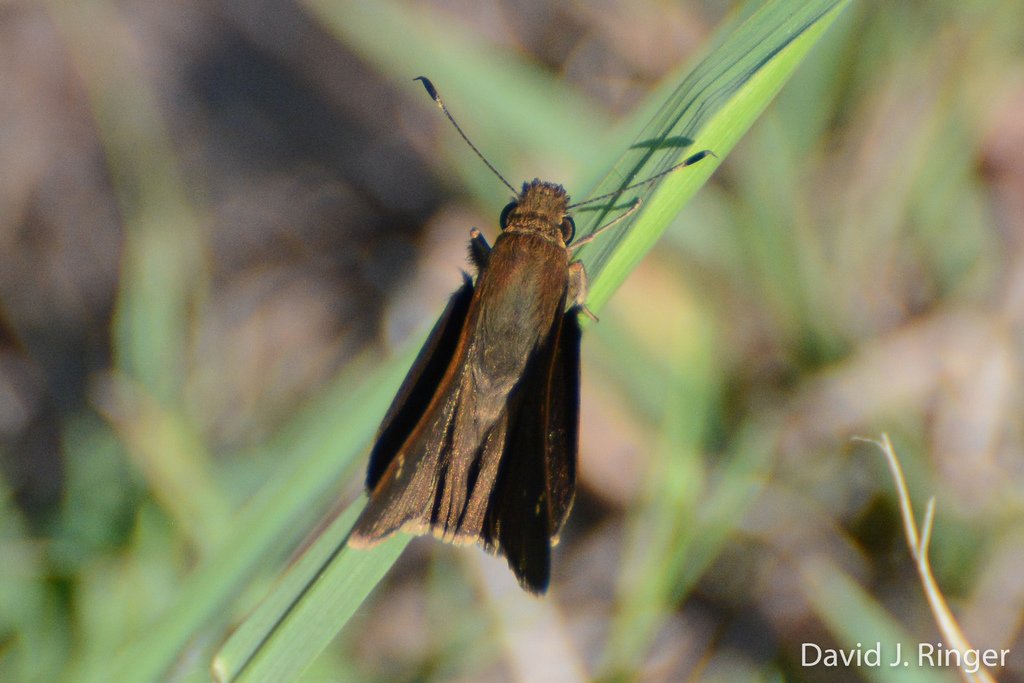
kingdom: Animalia
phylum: Arthropoda
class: Insecta
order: Lepidoptera
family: Hesperiidae
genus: Lerema
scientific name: Lerema accius
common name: Clouded Skipper
